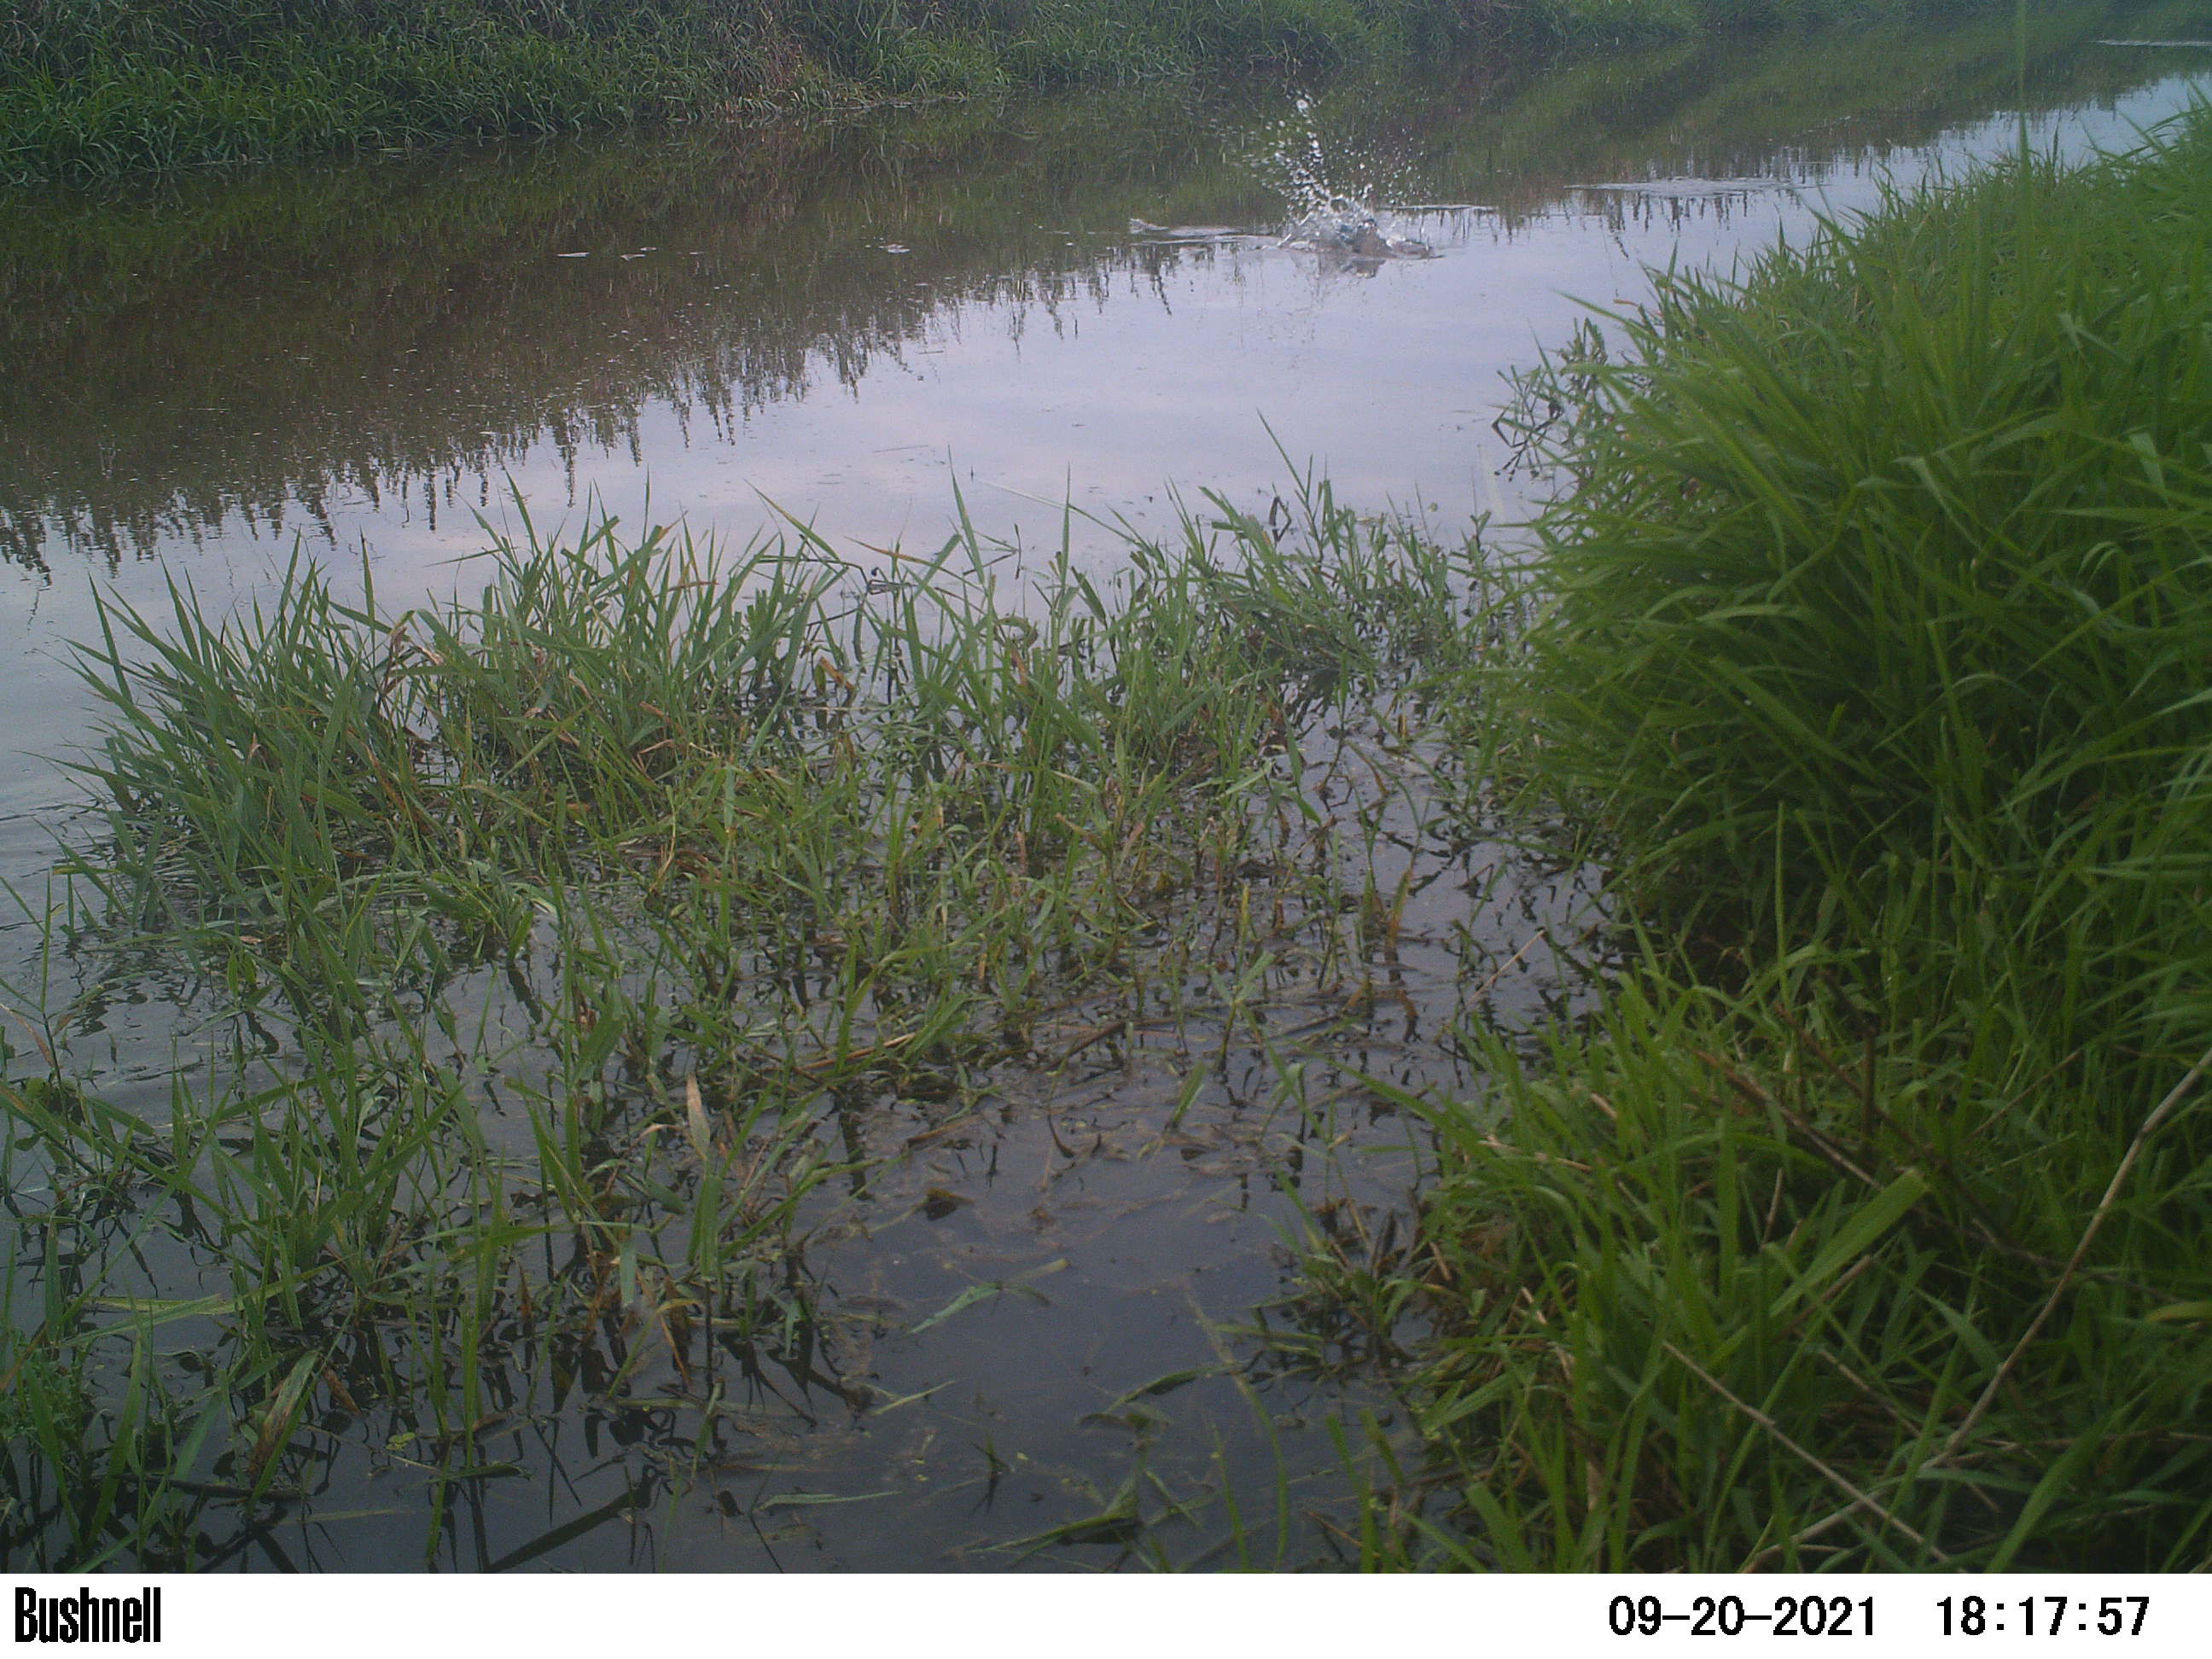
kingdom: Animalia
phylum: Chordata
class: Aves
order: Gruiformes
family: Rallidae
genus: Fulica
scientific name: Fulica atra
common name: Eurasian coot
